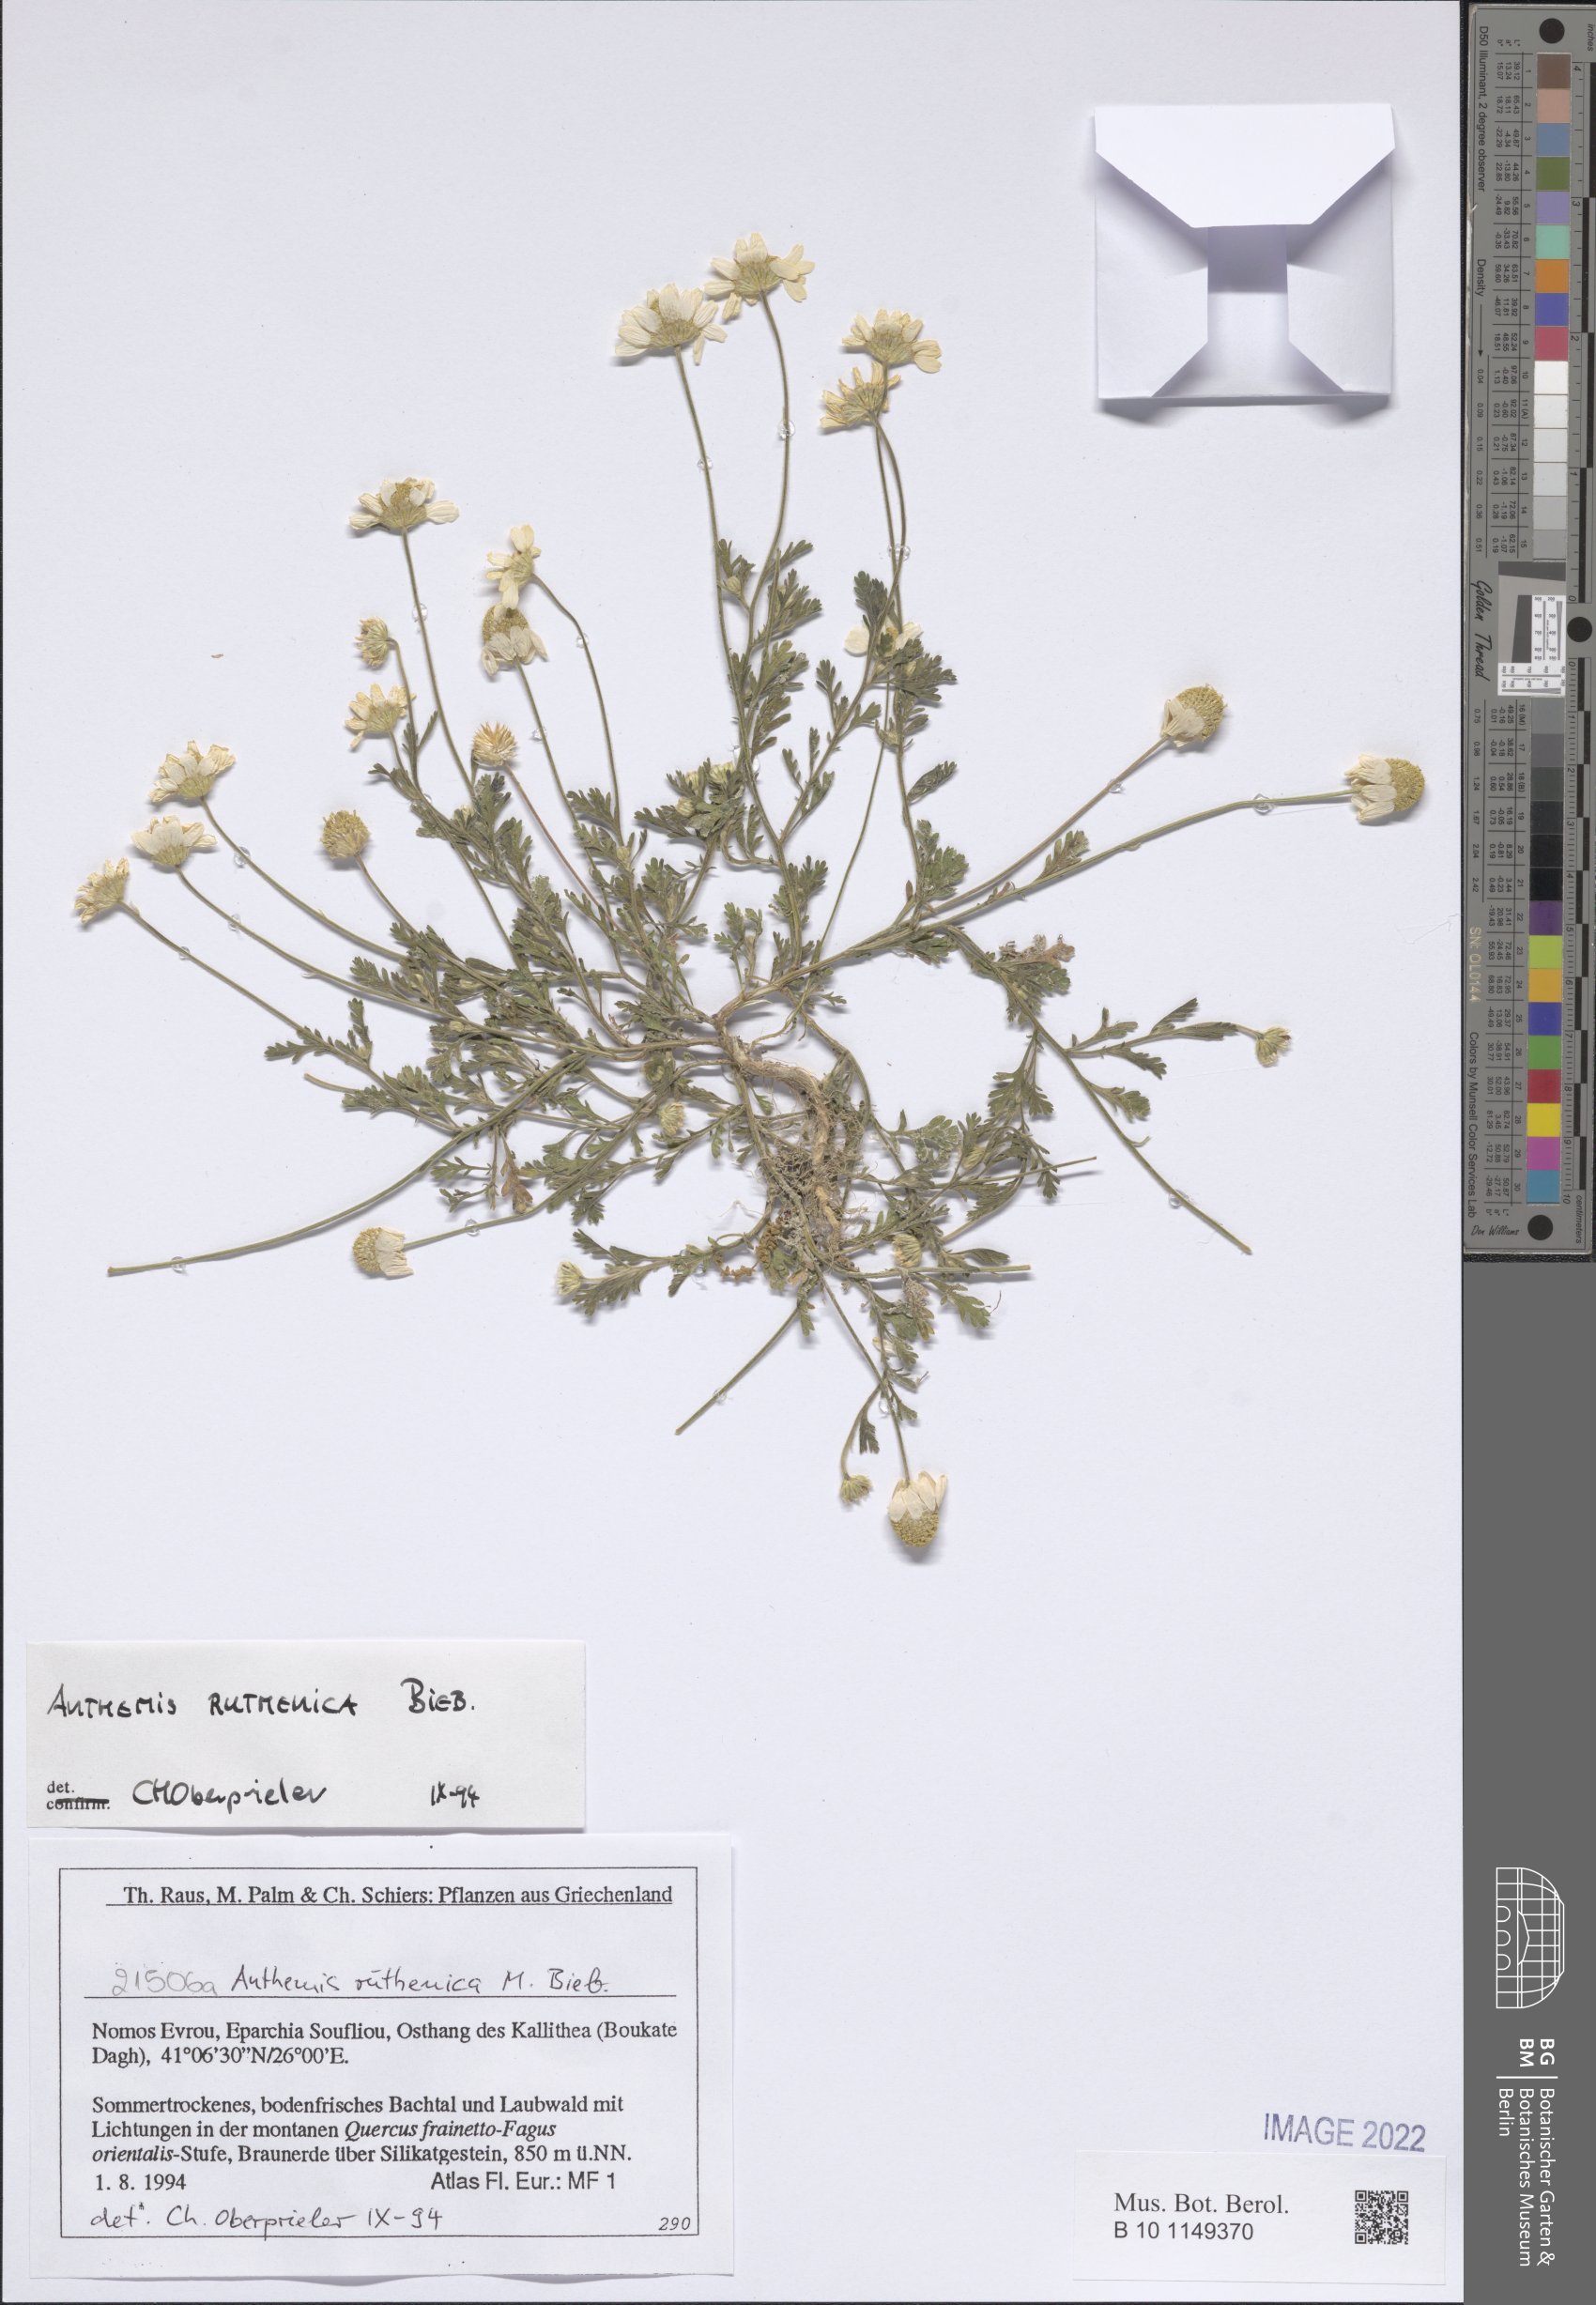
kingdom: Plantae
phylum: Tracheophyta
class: Magnoliopsida
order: Asterales
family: Asteraceae
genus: Anthemis
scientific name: Anthemis ruthenica
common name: Eastern chamomile
